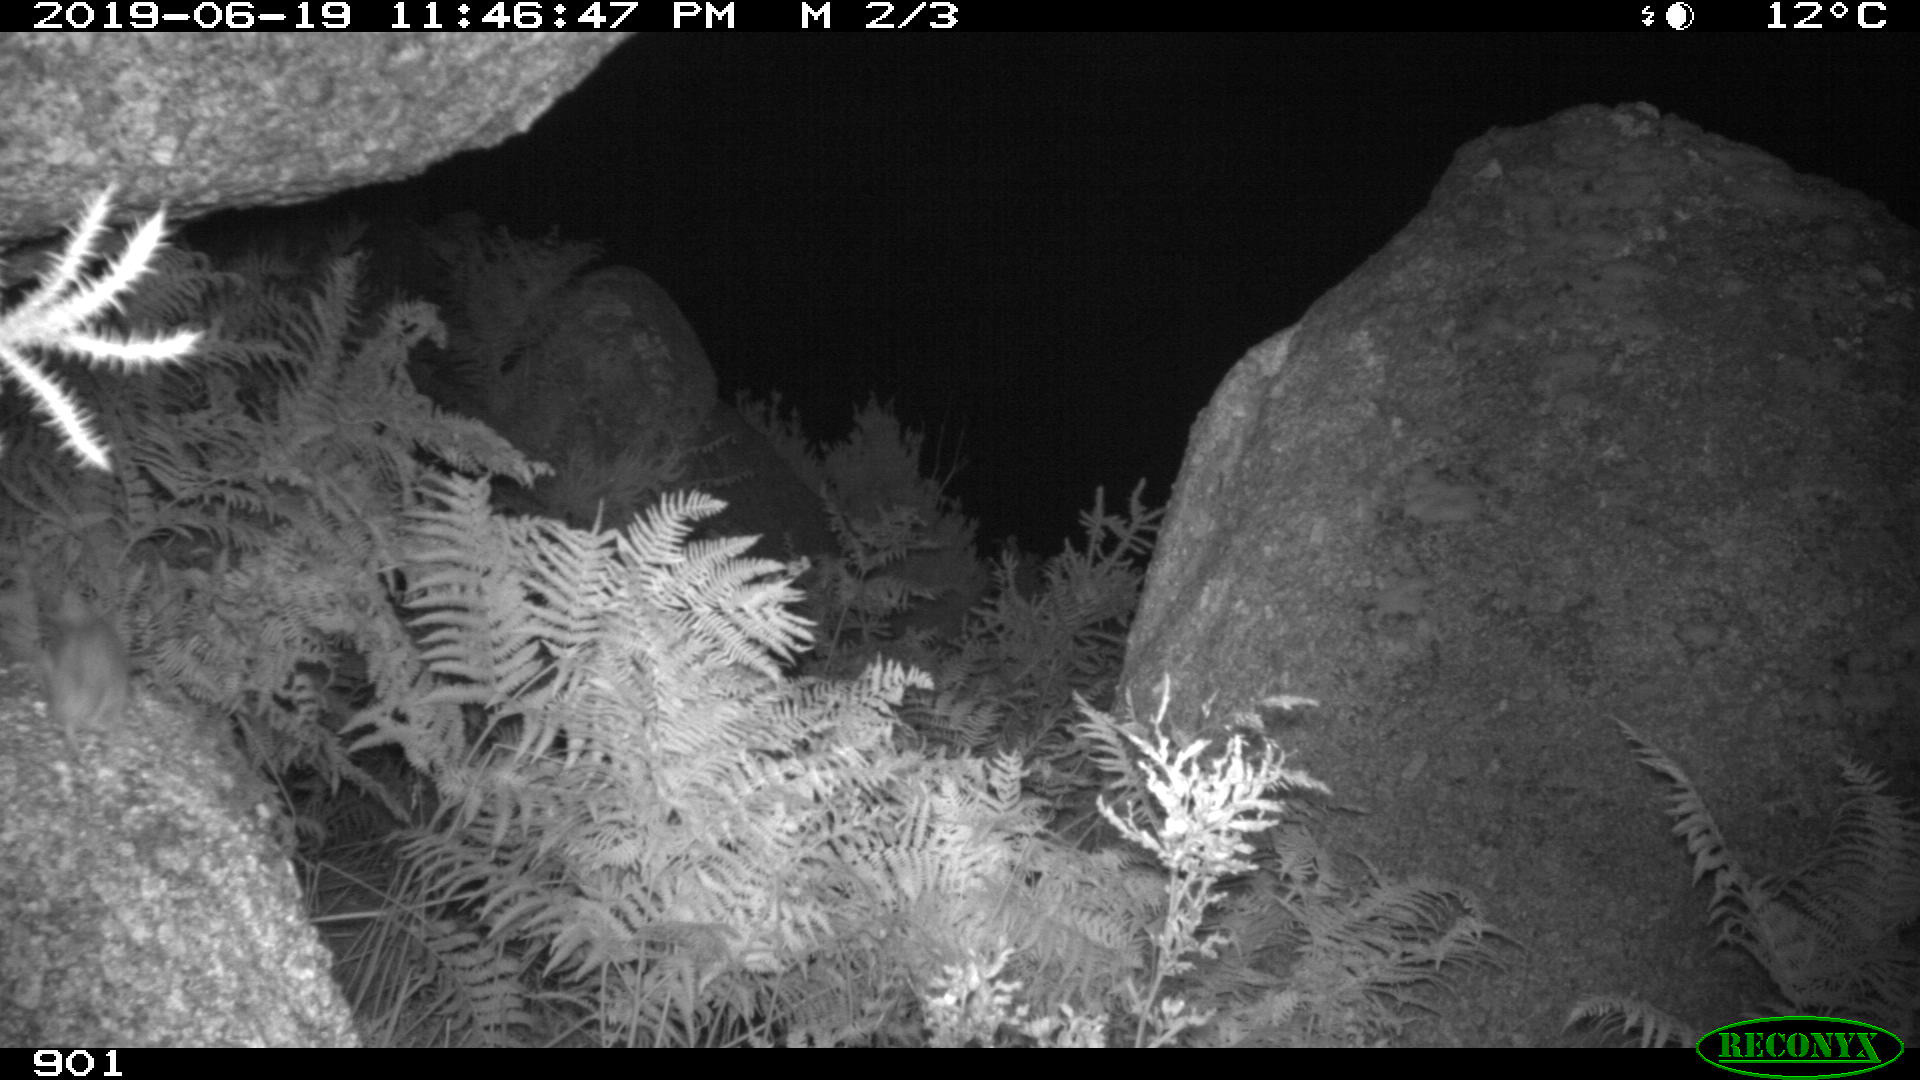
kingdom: Animalia
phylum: Chordata
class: Mammalia
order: Rodentia
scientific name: Rodentia
